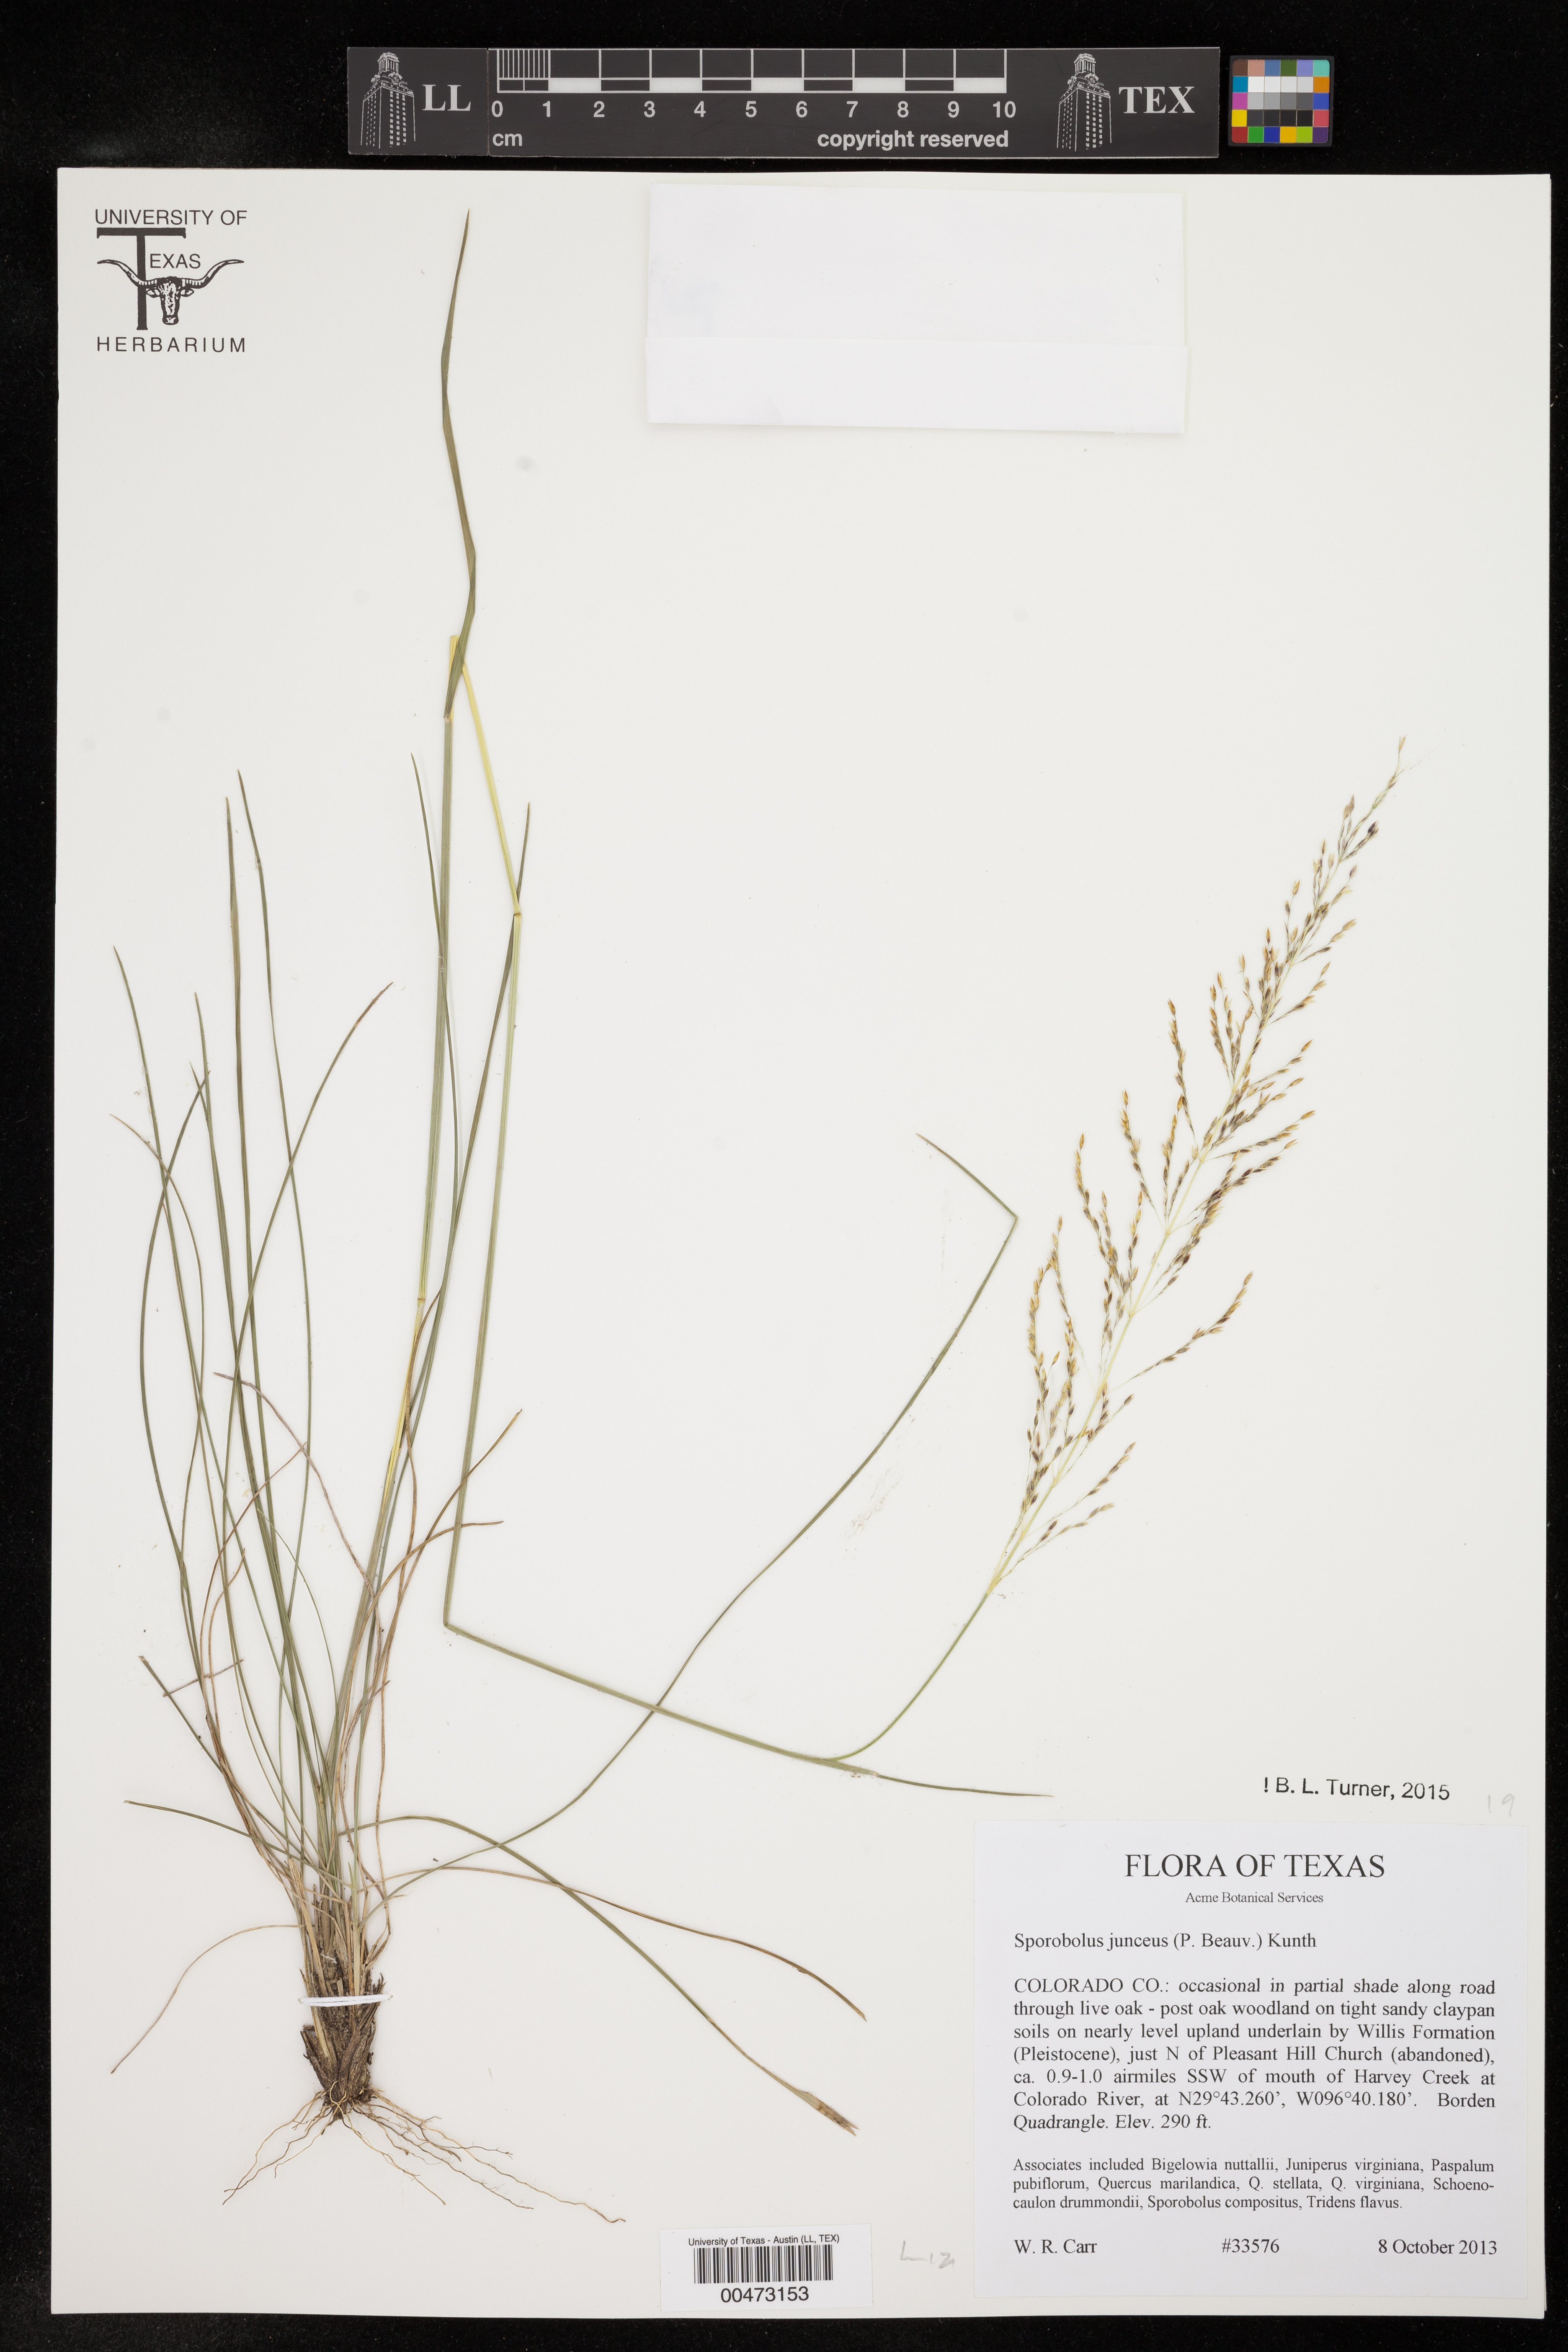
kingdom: Plantae
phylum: Tracheophyta
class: Liliopsida
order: Poales
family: Poaceae
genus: Sporobolus
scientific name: Sporobolus junceus
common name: Lizard grass
